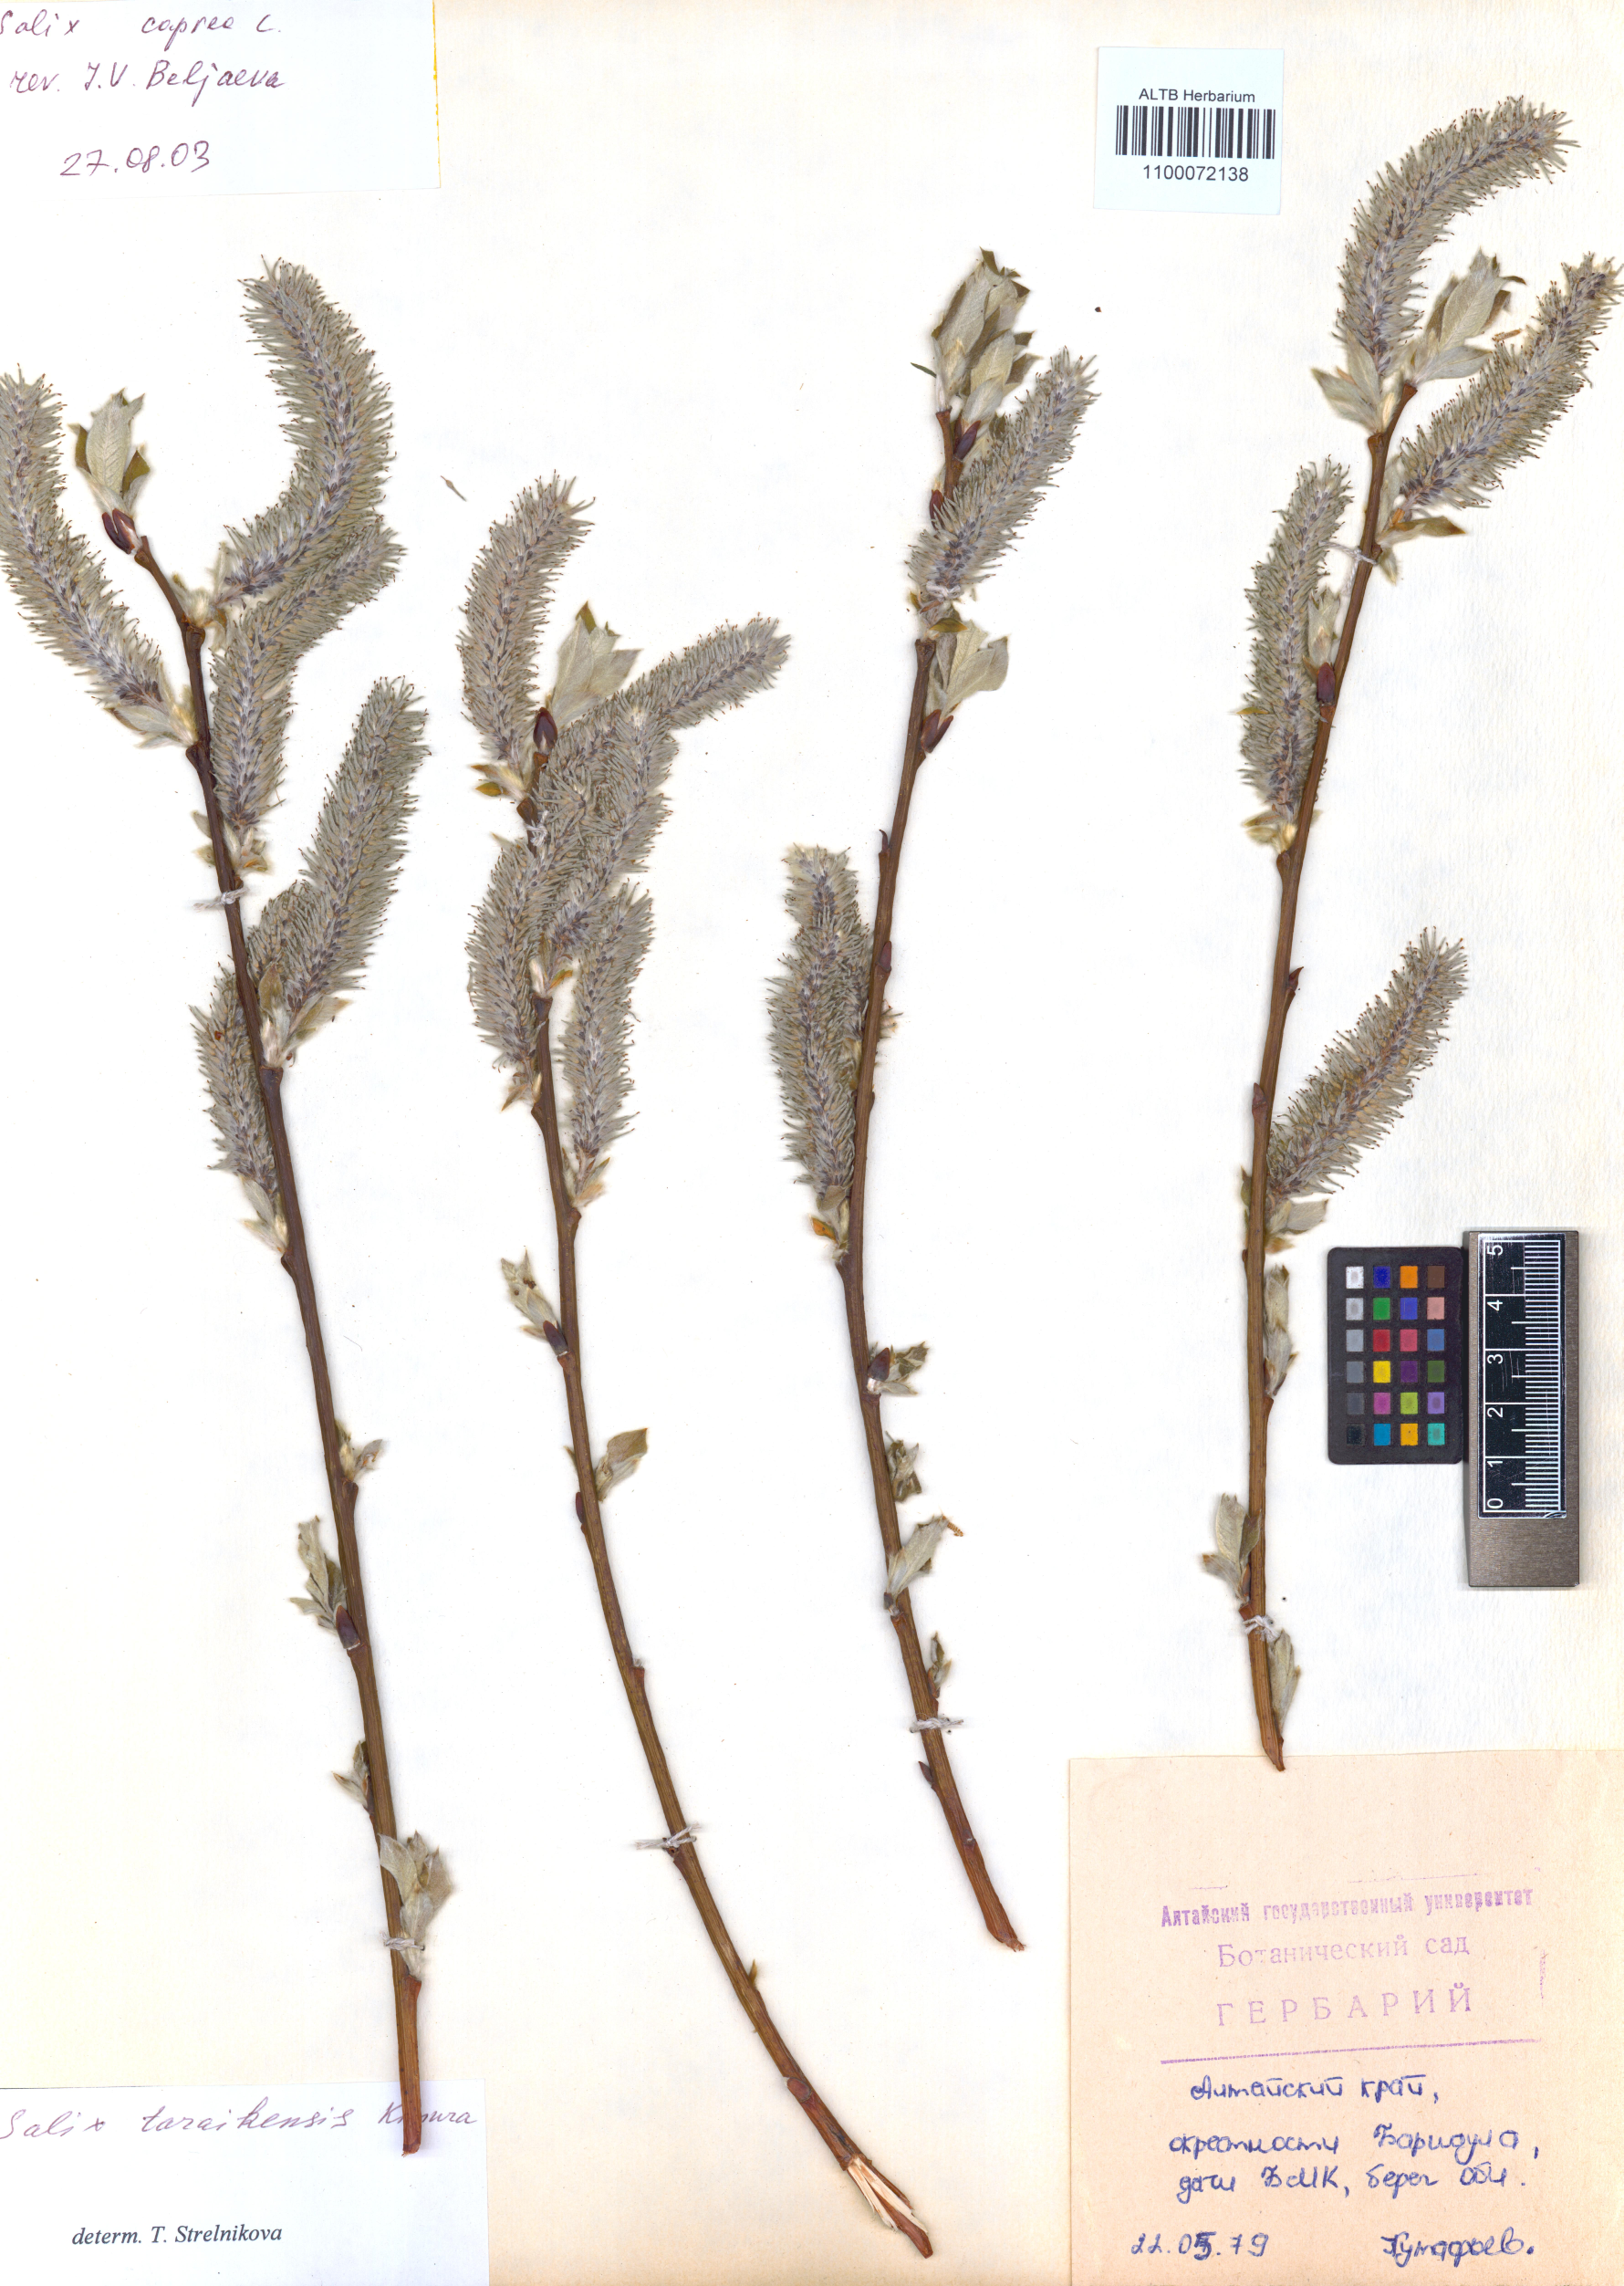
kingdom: Plantae
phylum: Tracheophyta
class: Magnoliopsida
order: Malpighiales
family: Salicaceae
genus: Salix
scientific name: Salix caprea
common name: Goat willow
